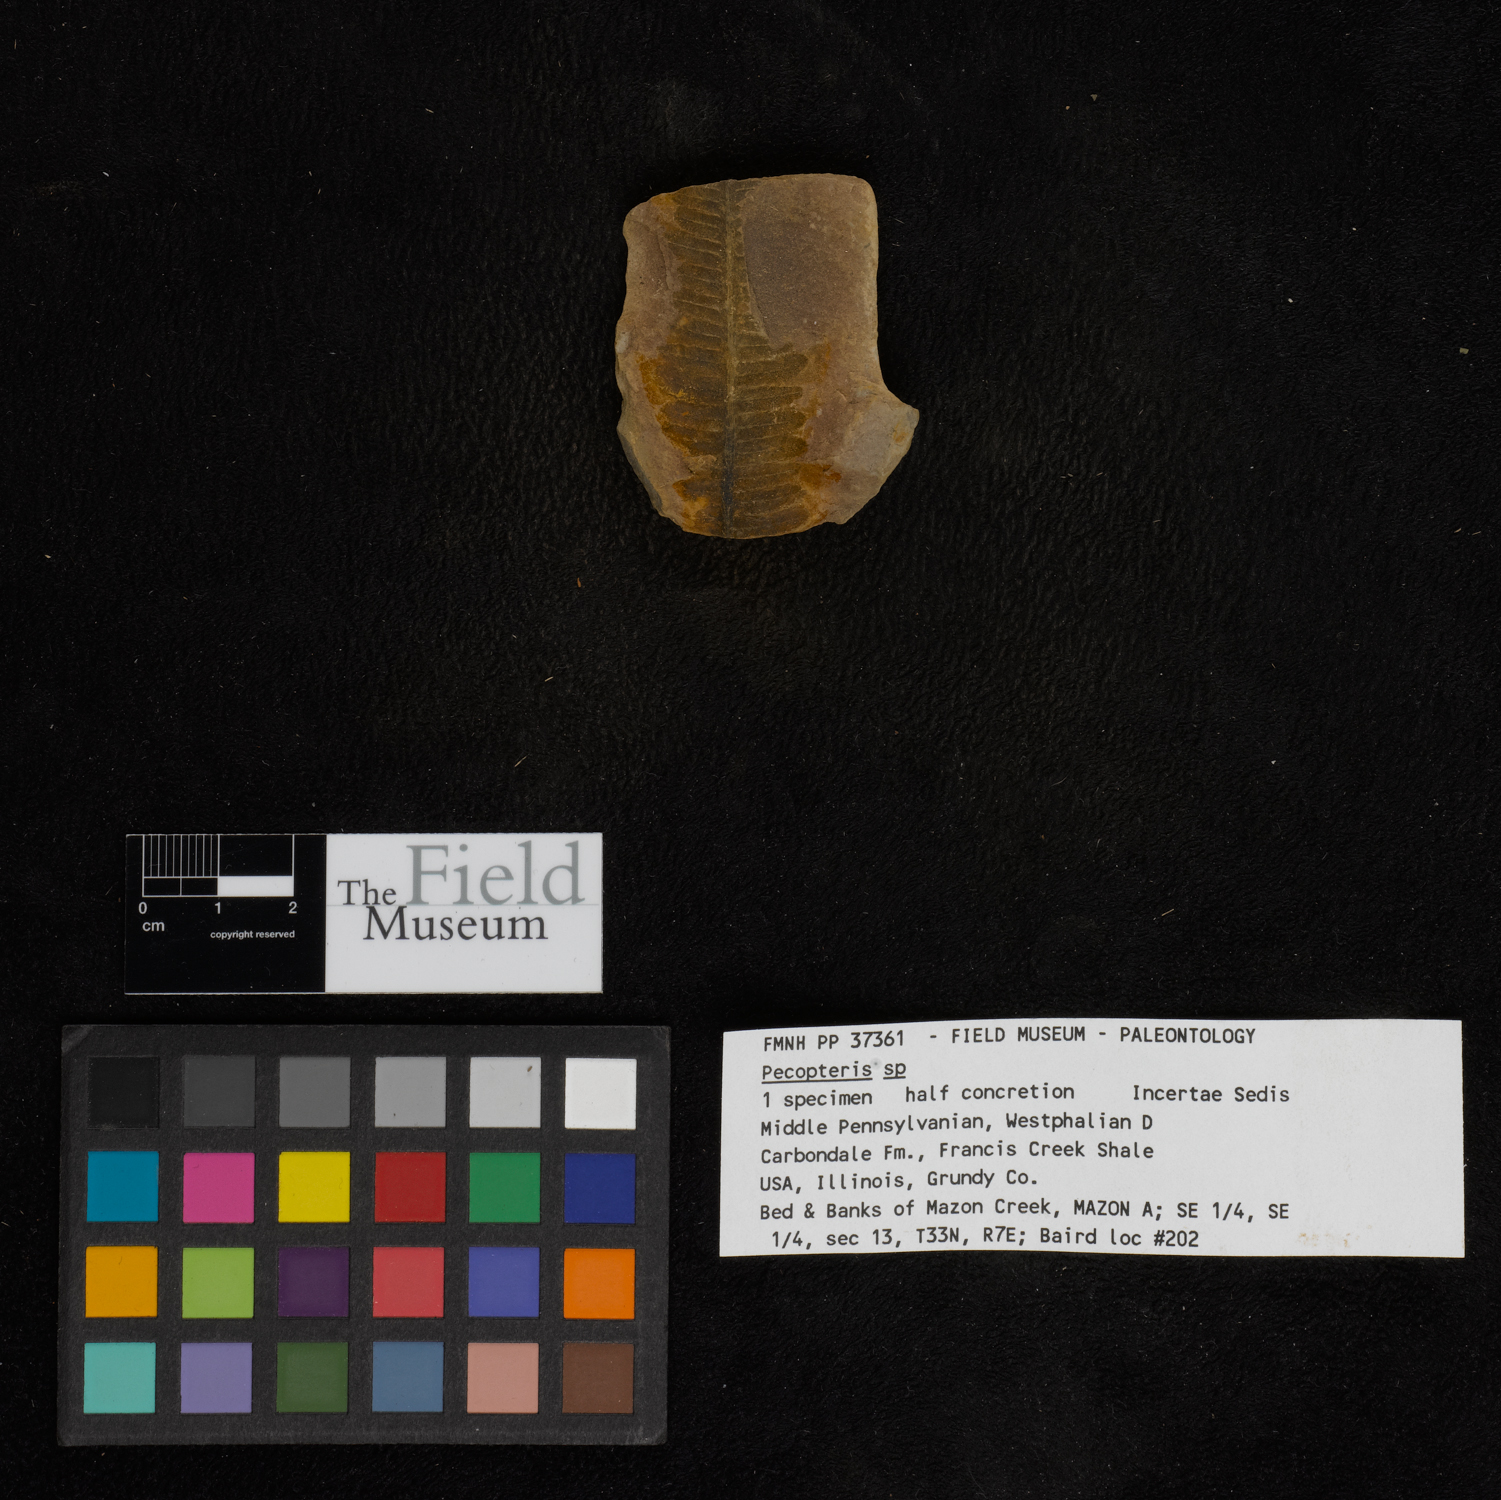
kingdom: Plantae
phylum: Tracheophyta
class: Polypodiopsida
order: Marattiales
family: Asterothecaceae
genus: Pecopteris
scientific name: Pecopteris
